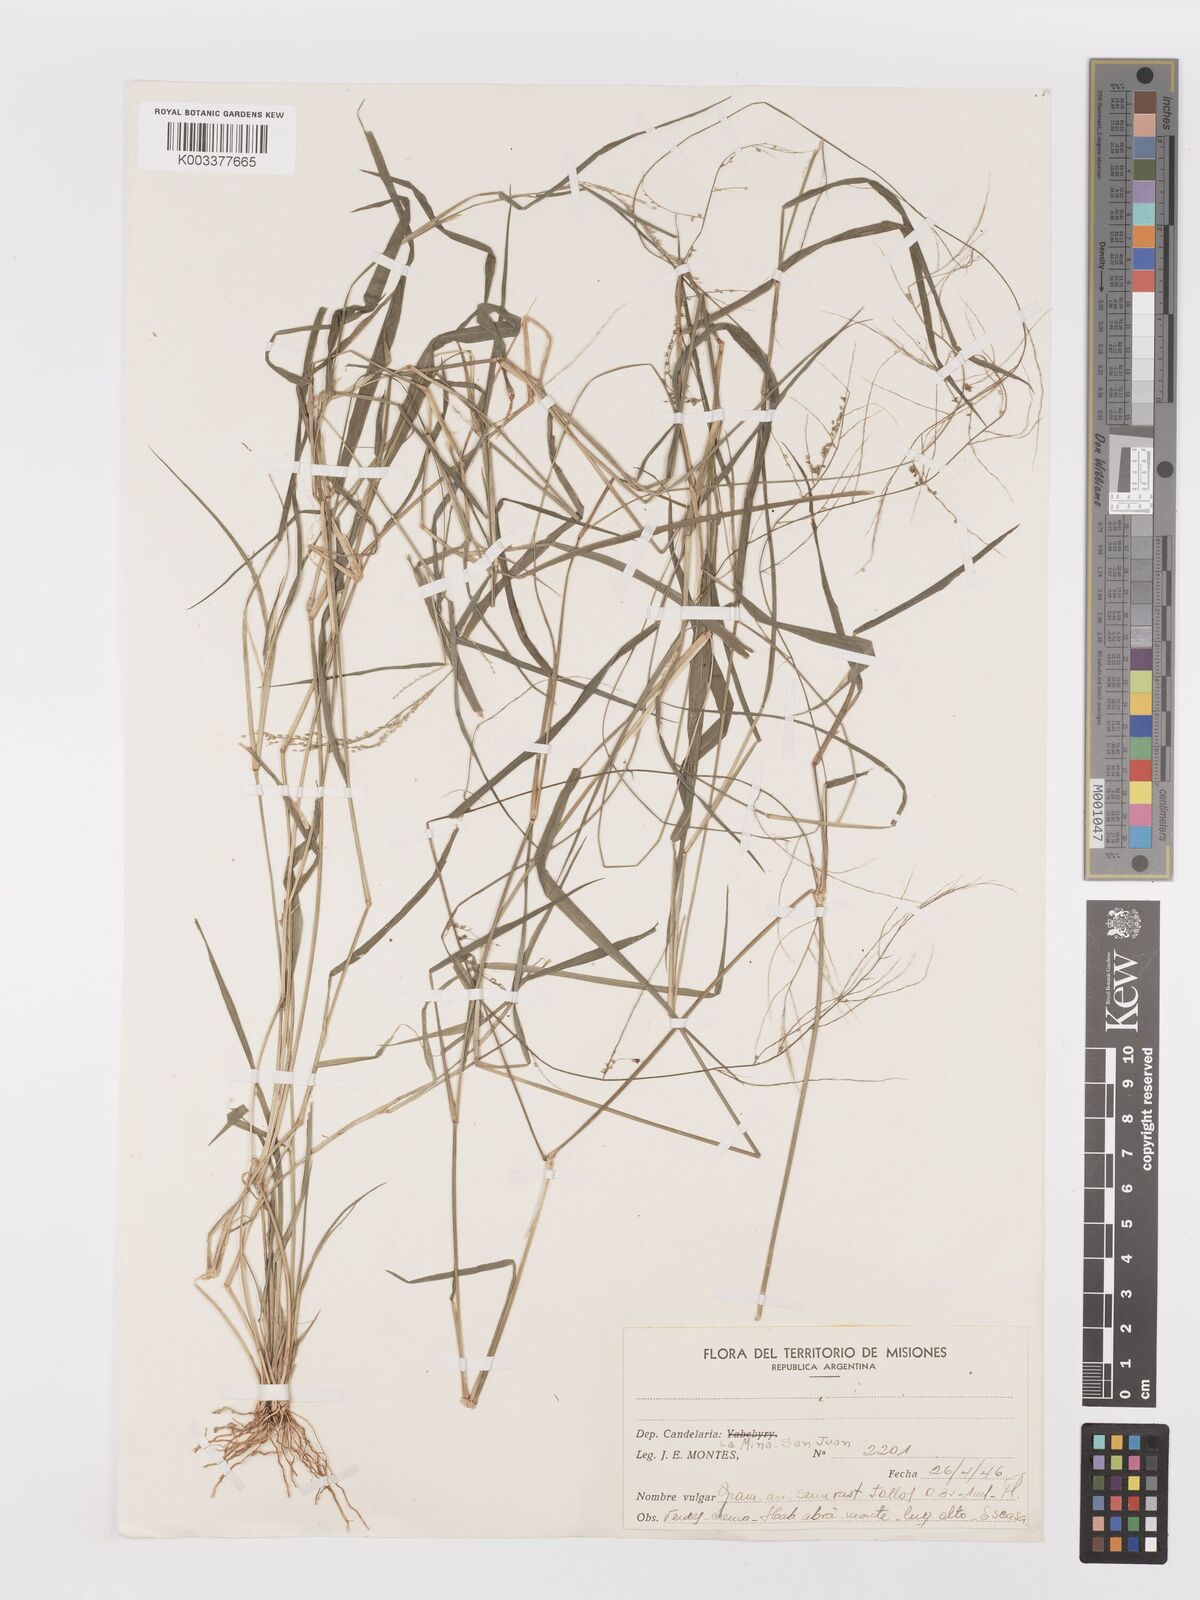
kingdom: Plantae
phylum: Tracheophyta
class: Liliopsida
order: Poales
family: Poaceae
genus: Steinchisma
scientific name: Steinchisma laxum
